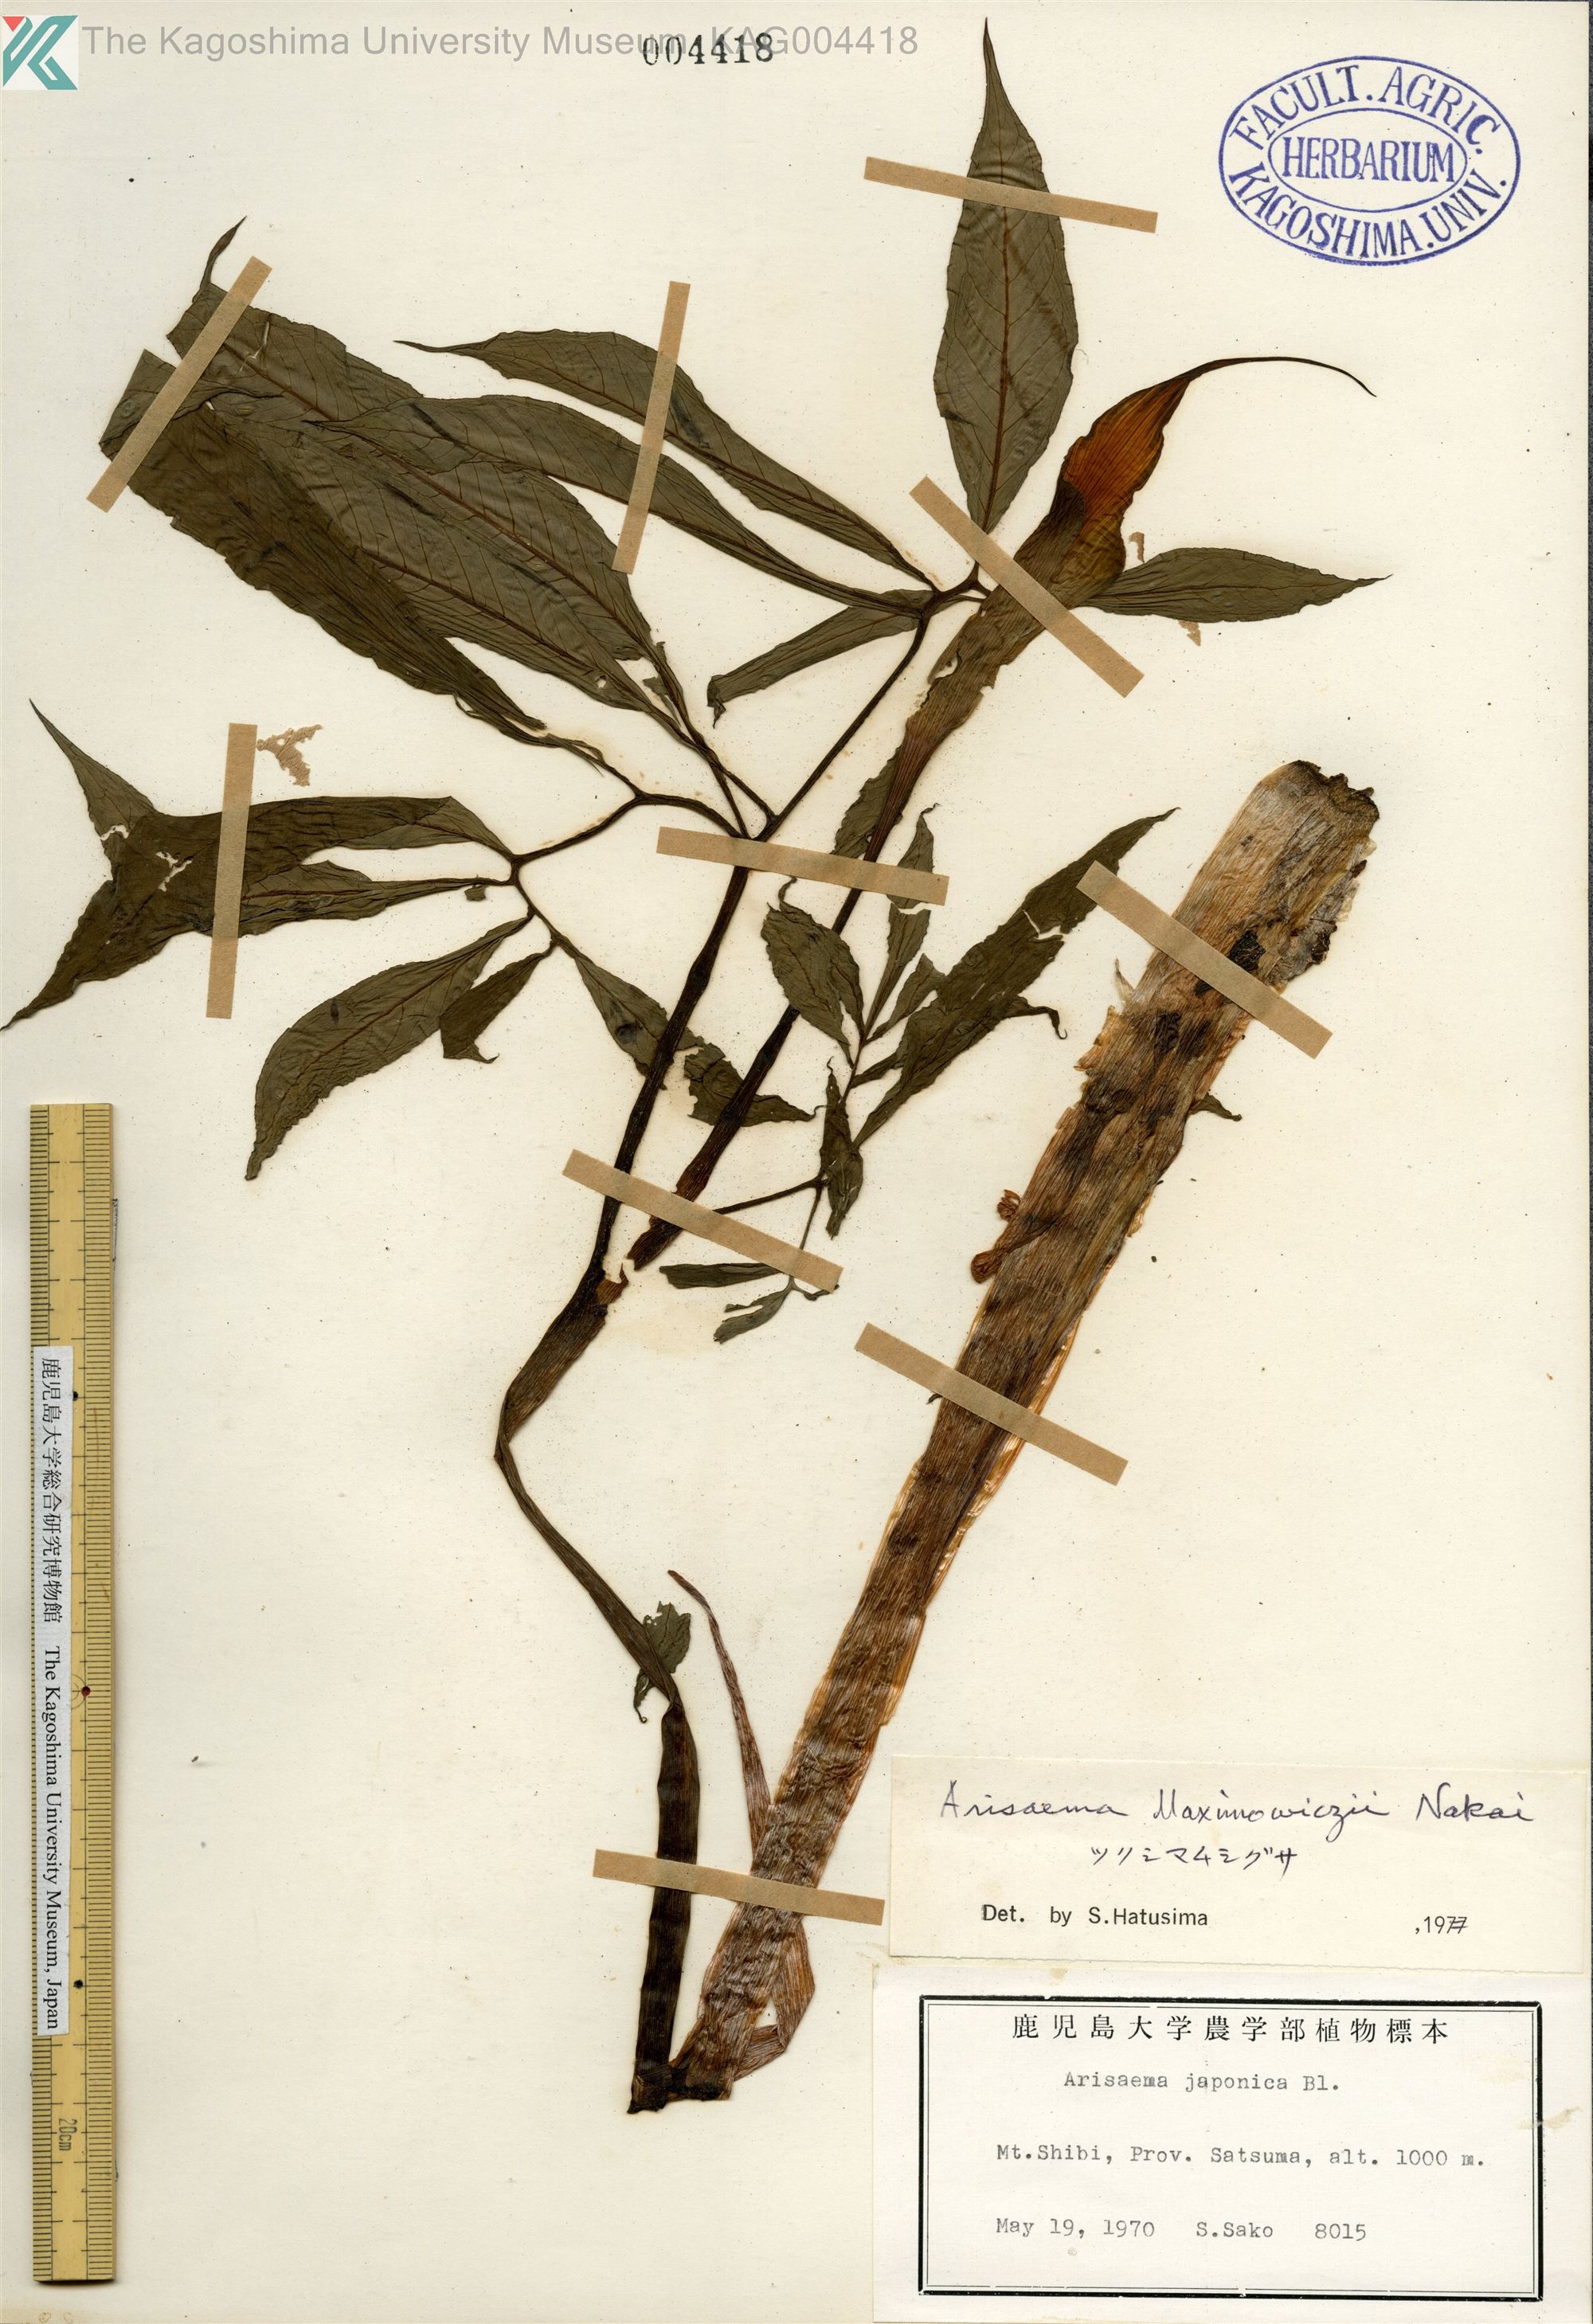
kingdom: Plantae
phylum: Tracheophyta
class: Liliopsida
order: Alismatales
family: Araceae
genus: Arisaema
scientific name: Arisaema maximowiczii
